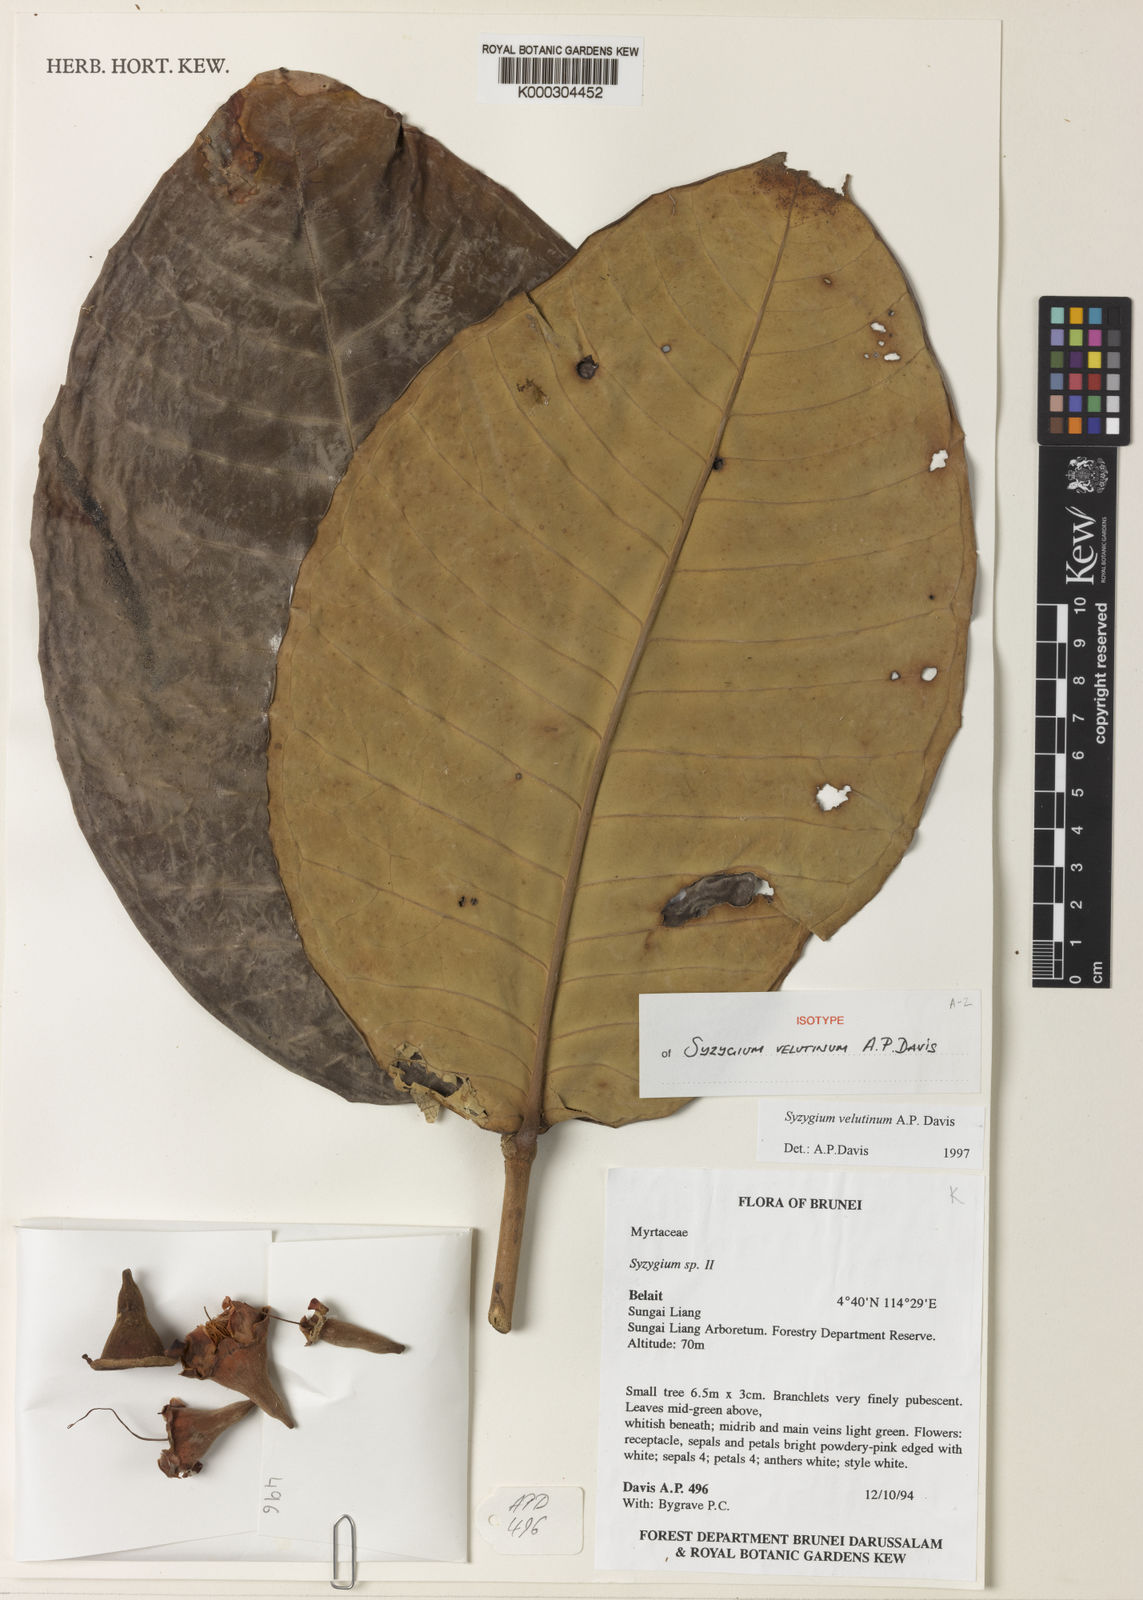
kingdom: Plantae
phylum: Tracheophyta
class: Magnoliopsida
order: Myrtales
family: Myrtaceae
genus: Syzygium
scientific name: Syzygium velutinum
